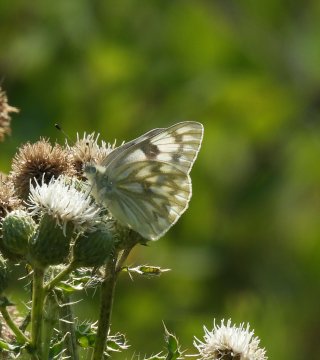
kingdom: Animalia
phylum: Arthropoda
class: Insecta
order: Lepidoptera
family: Pieridae
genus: Pontia
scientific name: Pontia occidentalis
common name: Western White
